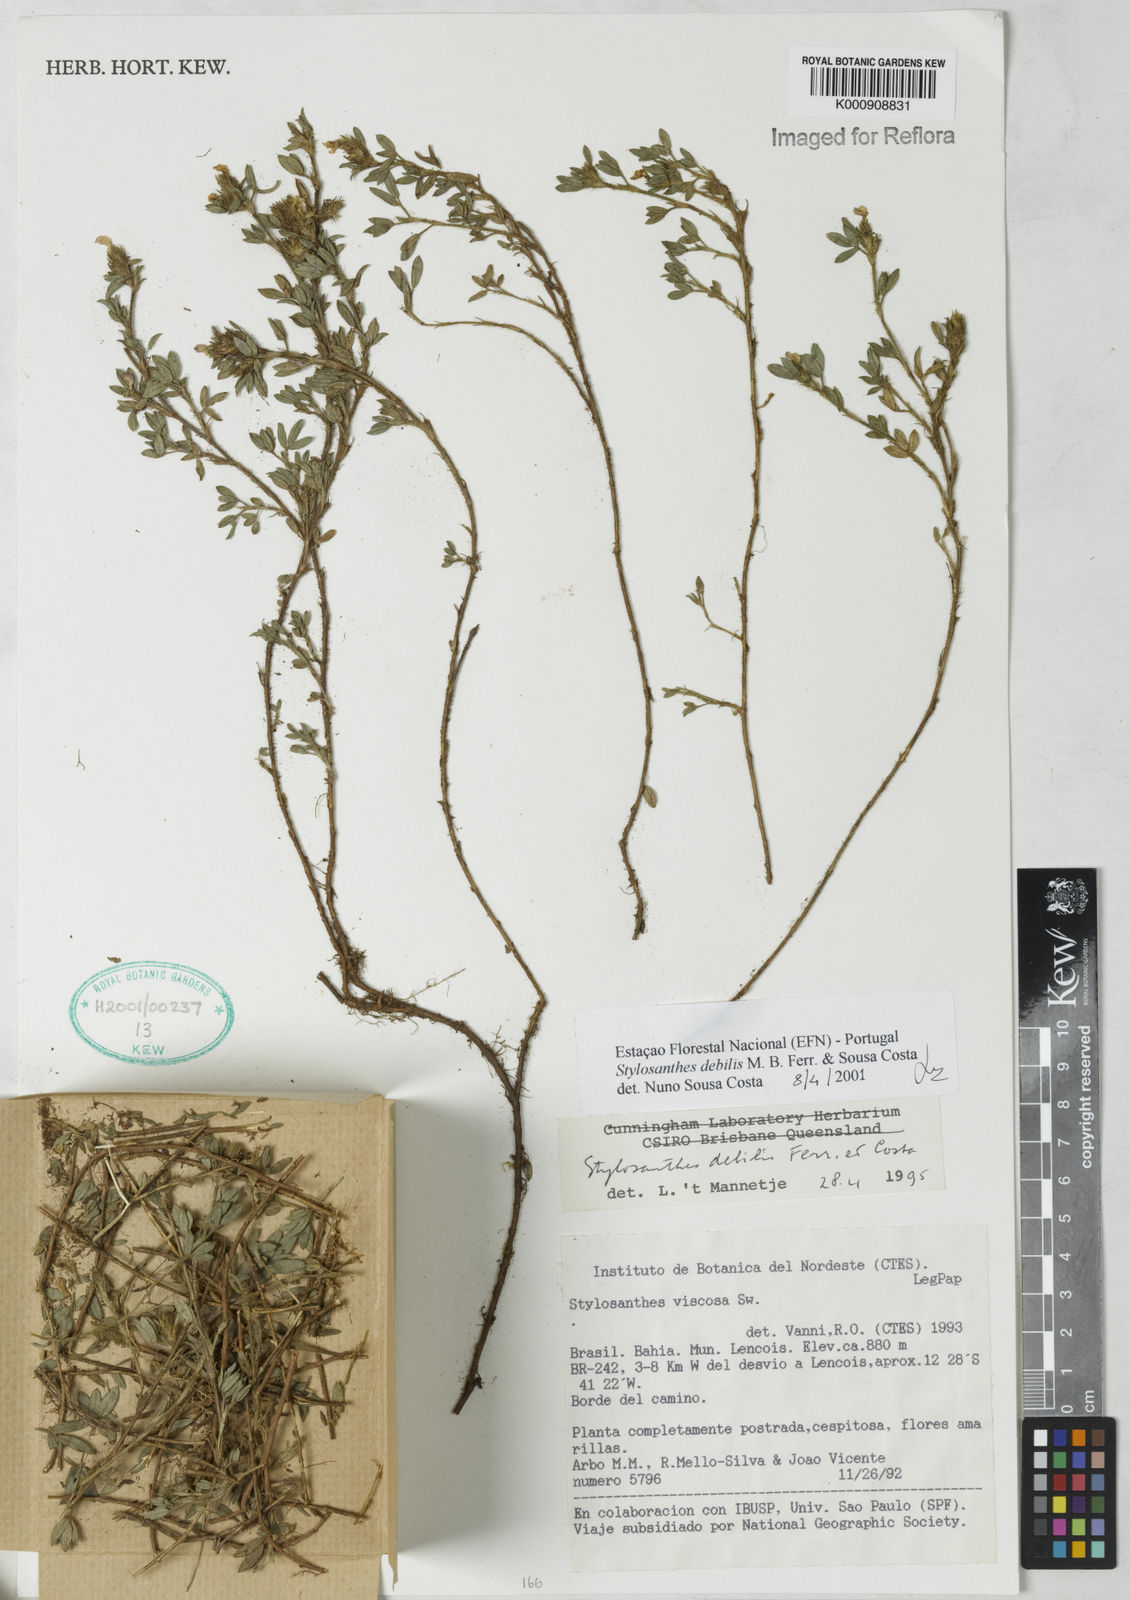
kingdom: Plantae
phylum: Tracheophyta
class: Magnoliopsida
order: Fabales
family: Fabaceae
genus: Stylosanthes
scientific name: Stylosanthes viscosa
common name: Viscid pencil-flower
